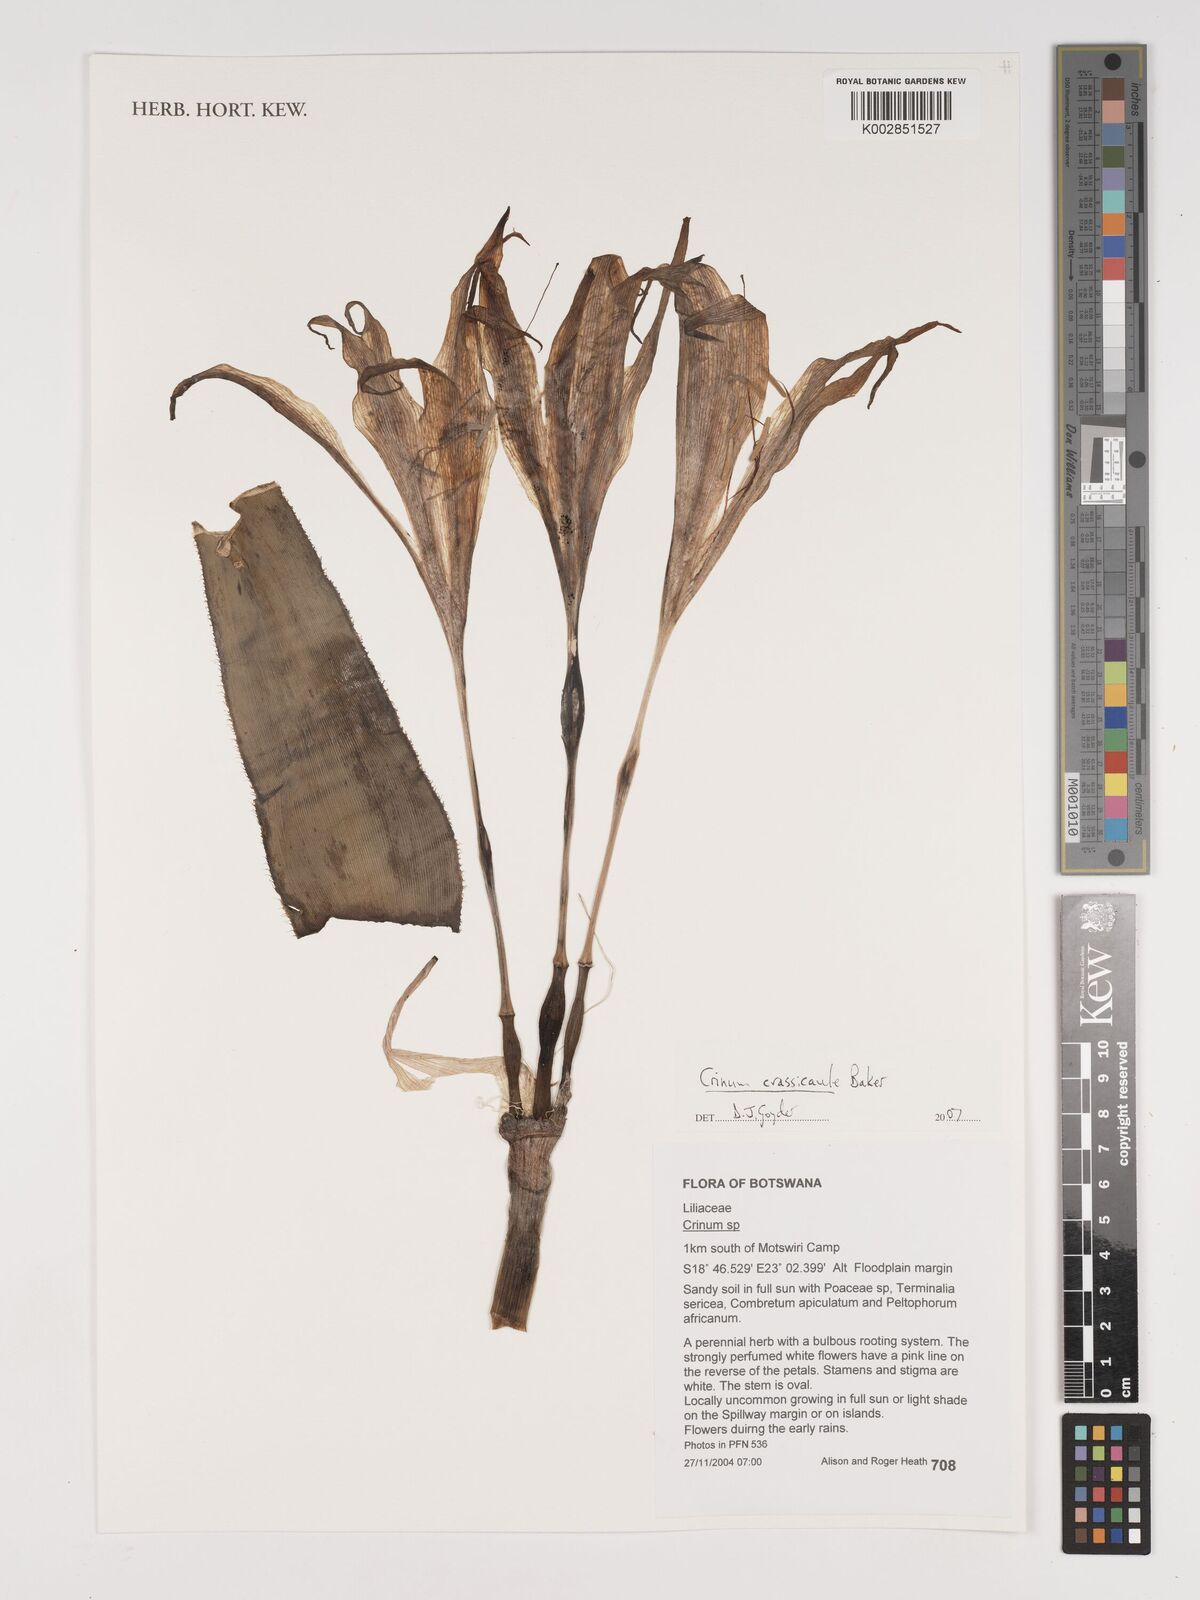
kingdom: Plantae
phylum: Tracheophyta
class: Liliopsida
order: Asparagales
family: Amaryllidaceae
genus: Crinum
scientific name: Crinum crassicaule
